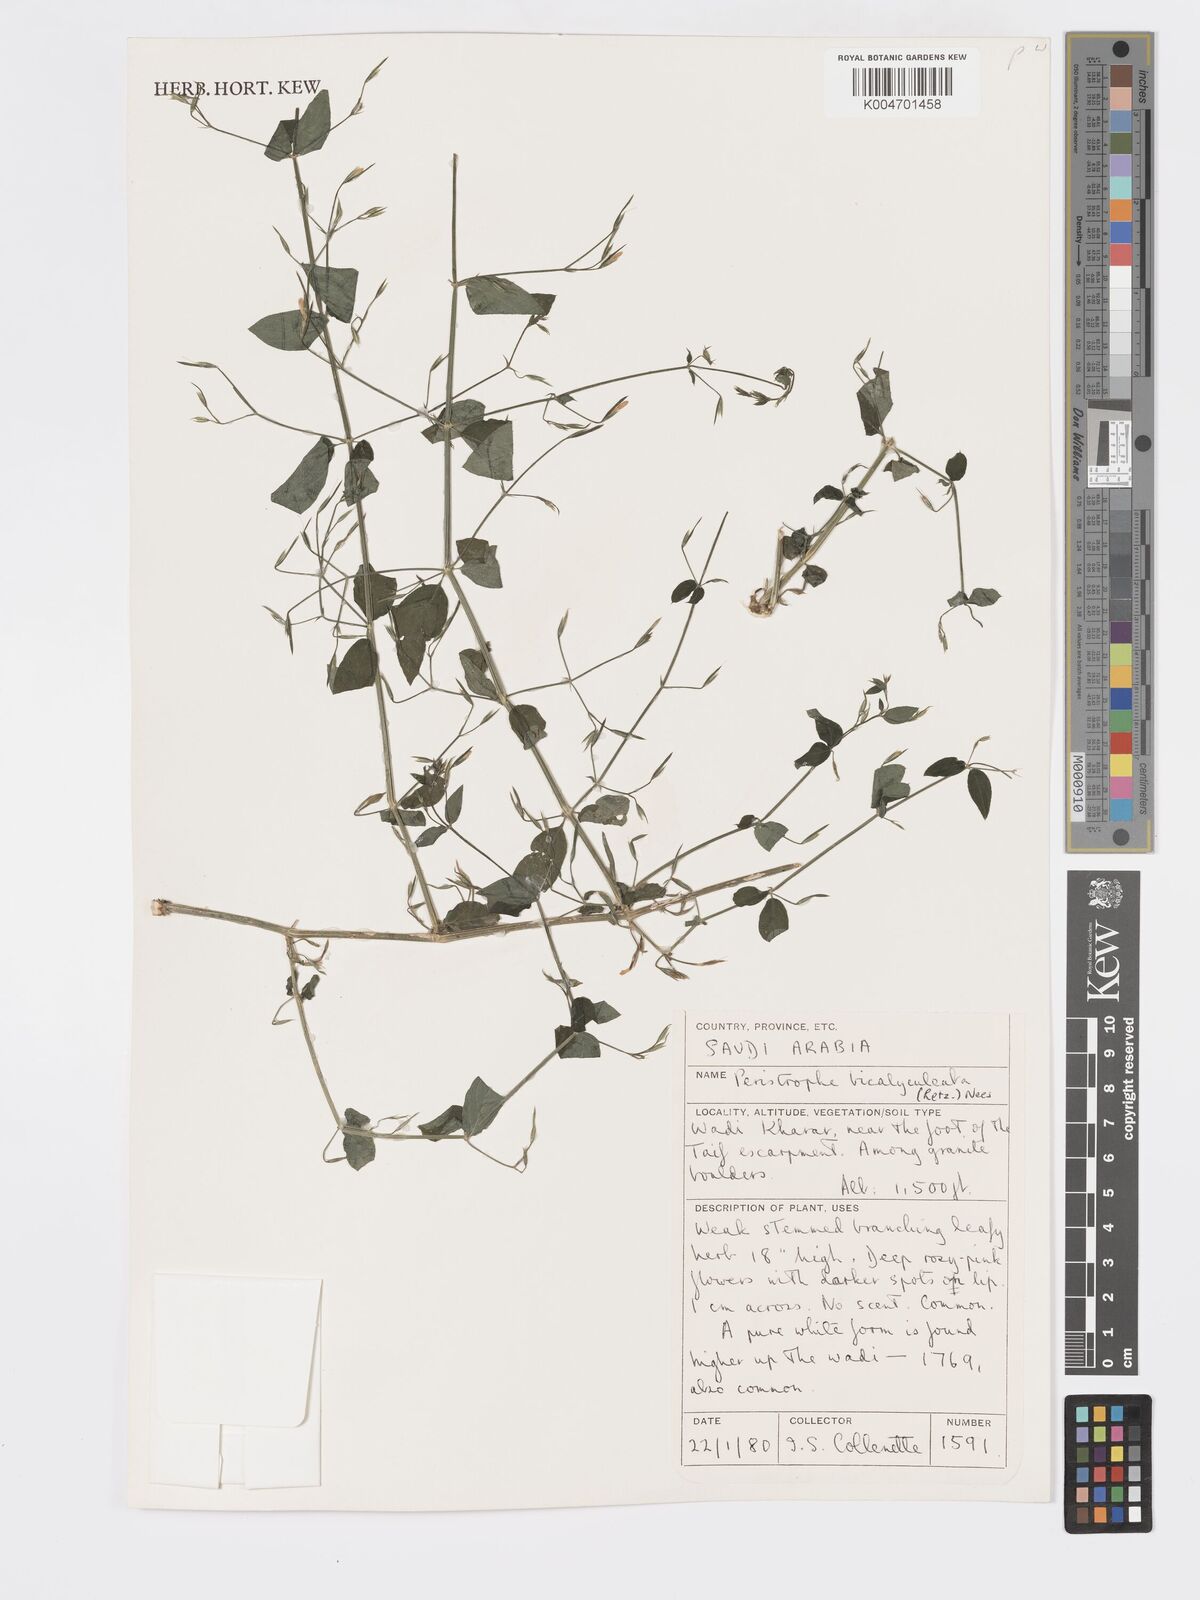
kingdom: Plantae
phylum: Tracheophyta
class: Magnoliopsida
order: Lamiales
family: Acanthaceae
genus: Dicliptera
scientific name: Dicliptera paniculata
